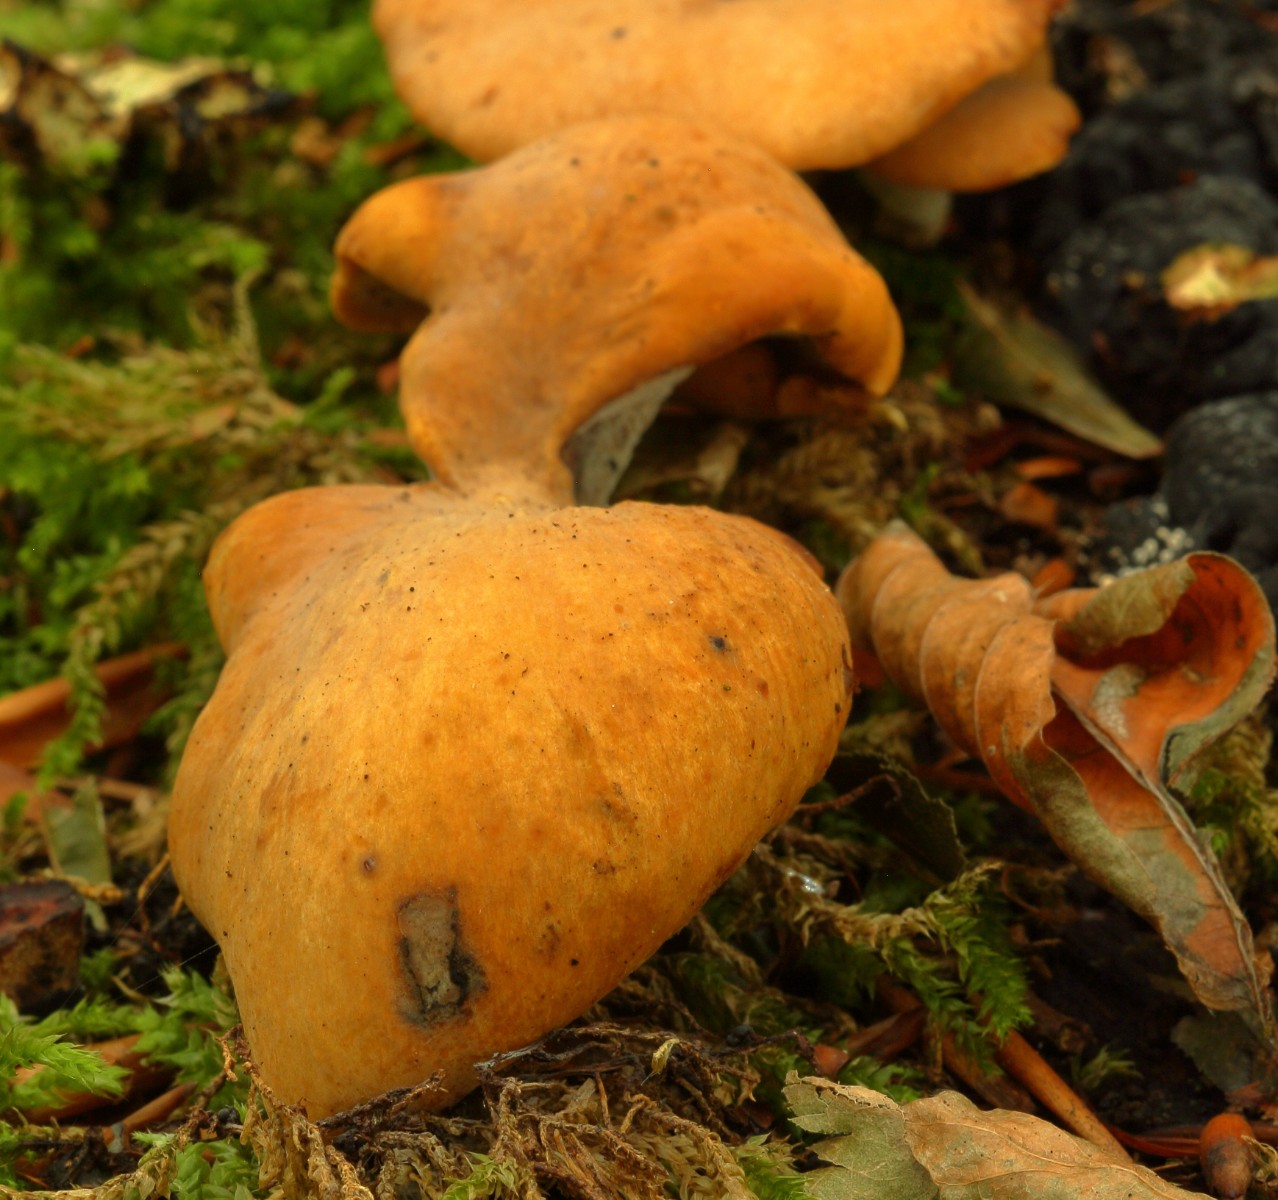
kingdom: Fungi
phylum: Basidiomycota
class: Agaricomycetes
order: Polyporales
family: Polyporaceae
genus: Cerioporus
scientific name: Cerioporus varius
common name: foranderlig stilkporesvamp
